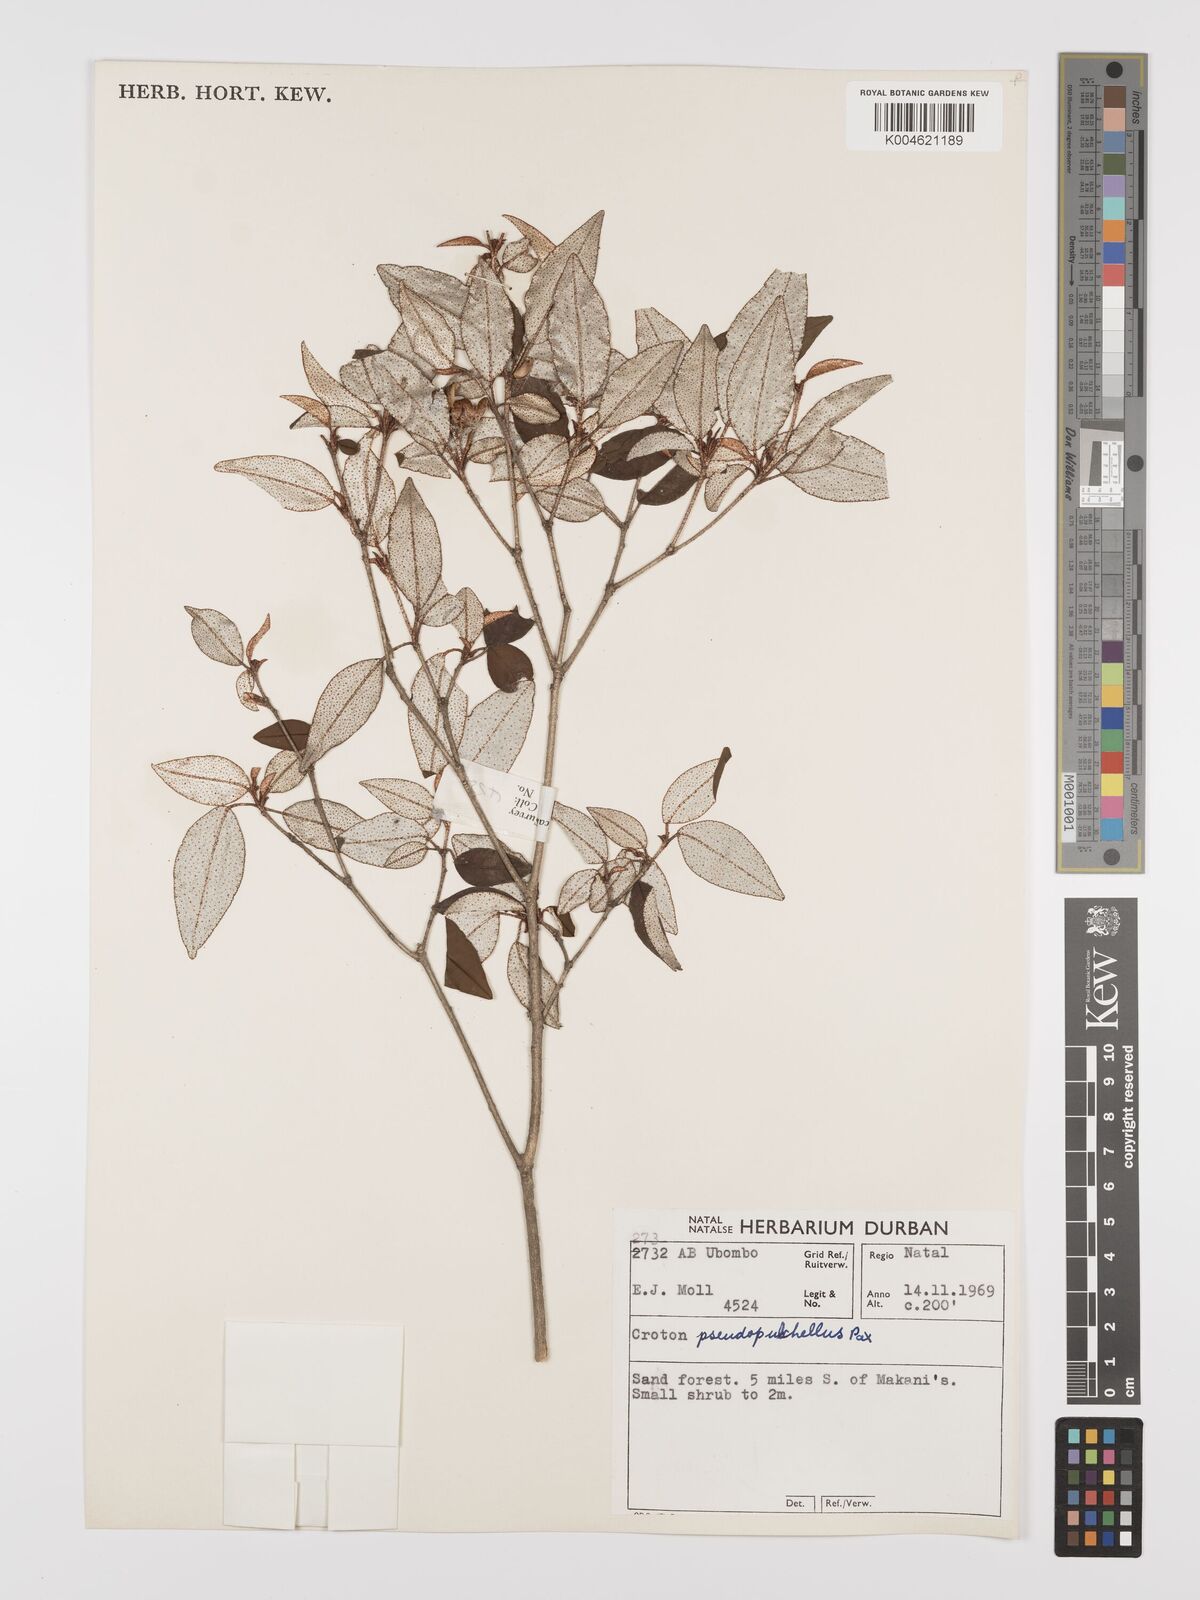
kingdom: Plantae
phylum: Tracheophyta
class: Magnoliopsida
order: Malpighiales
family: Euphorbiaceae
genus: Croton
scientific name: Croton pseudopulchellus
